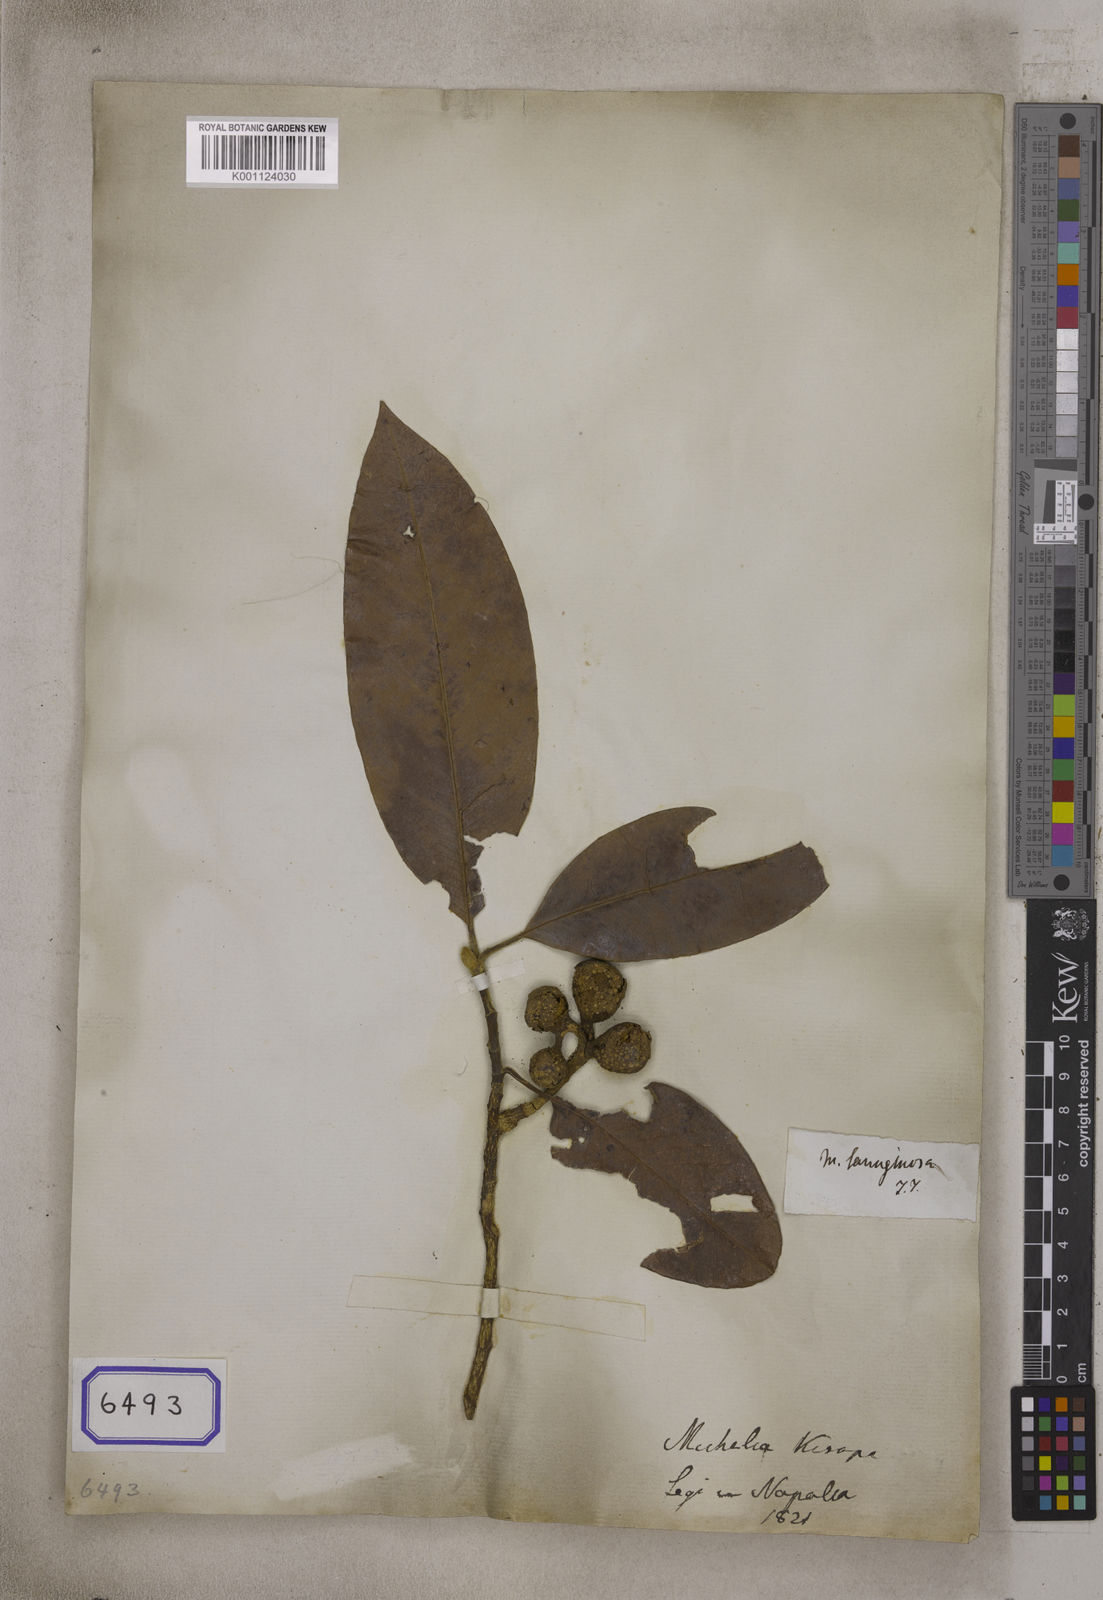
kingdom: Plantae
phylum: Tracheophyta
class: Magnoliopsida
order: Magnoliales
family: Magnoliaceae
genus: Magnolia
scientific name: Magnolia lanuginosa
